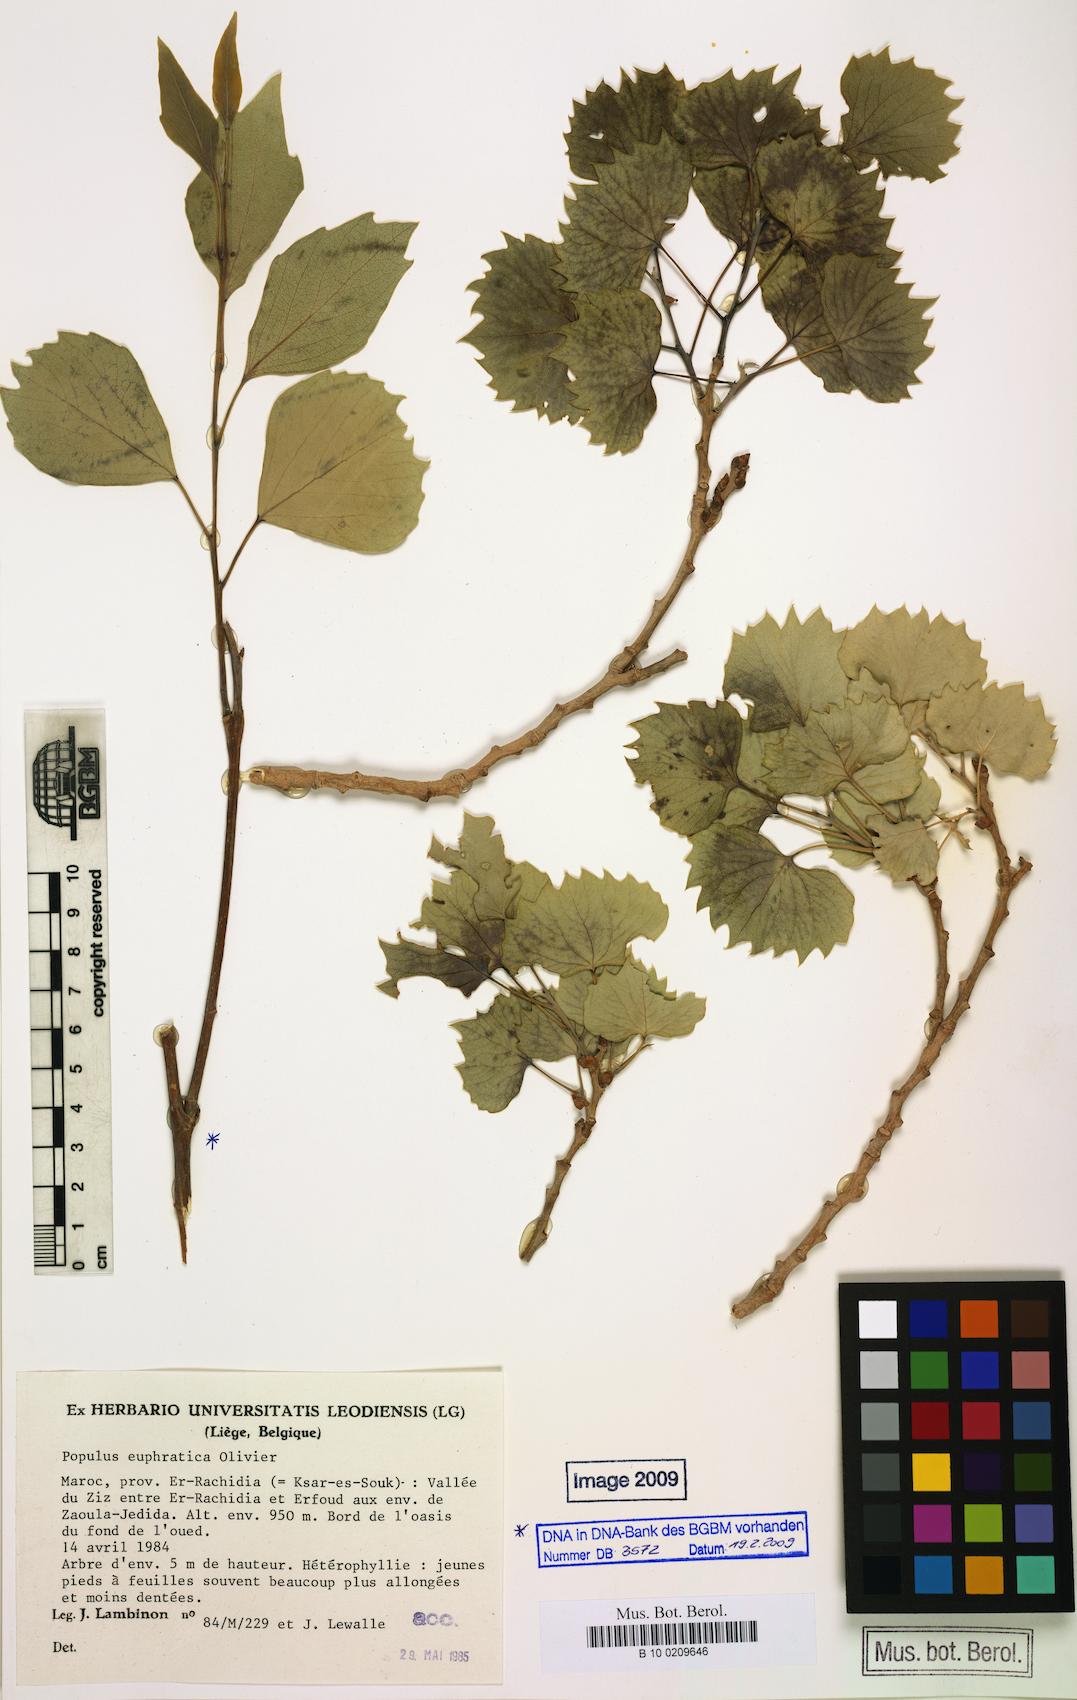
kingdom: Plantae
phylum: Tracheophyta
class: Magnoliopsida
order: Malpighiales
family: Salicaceae
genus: Populus
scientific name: Populus euphratica
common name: Euphrates poplar
